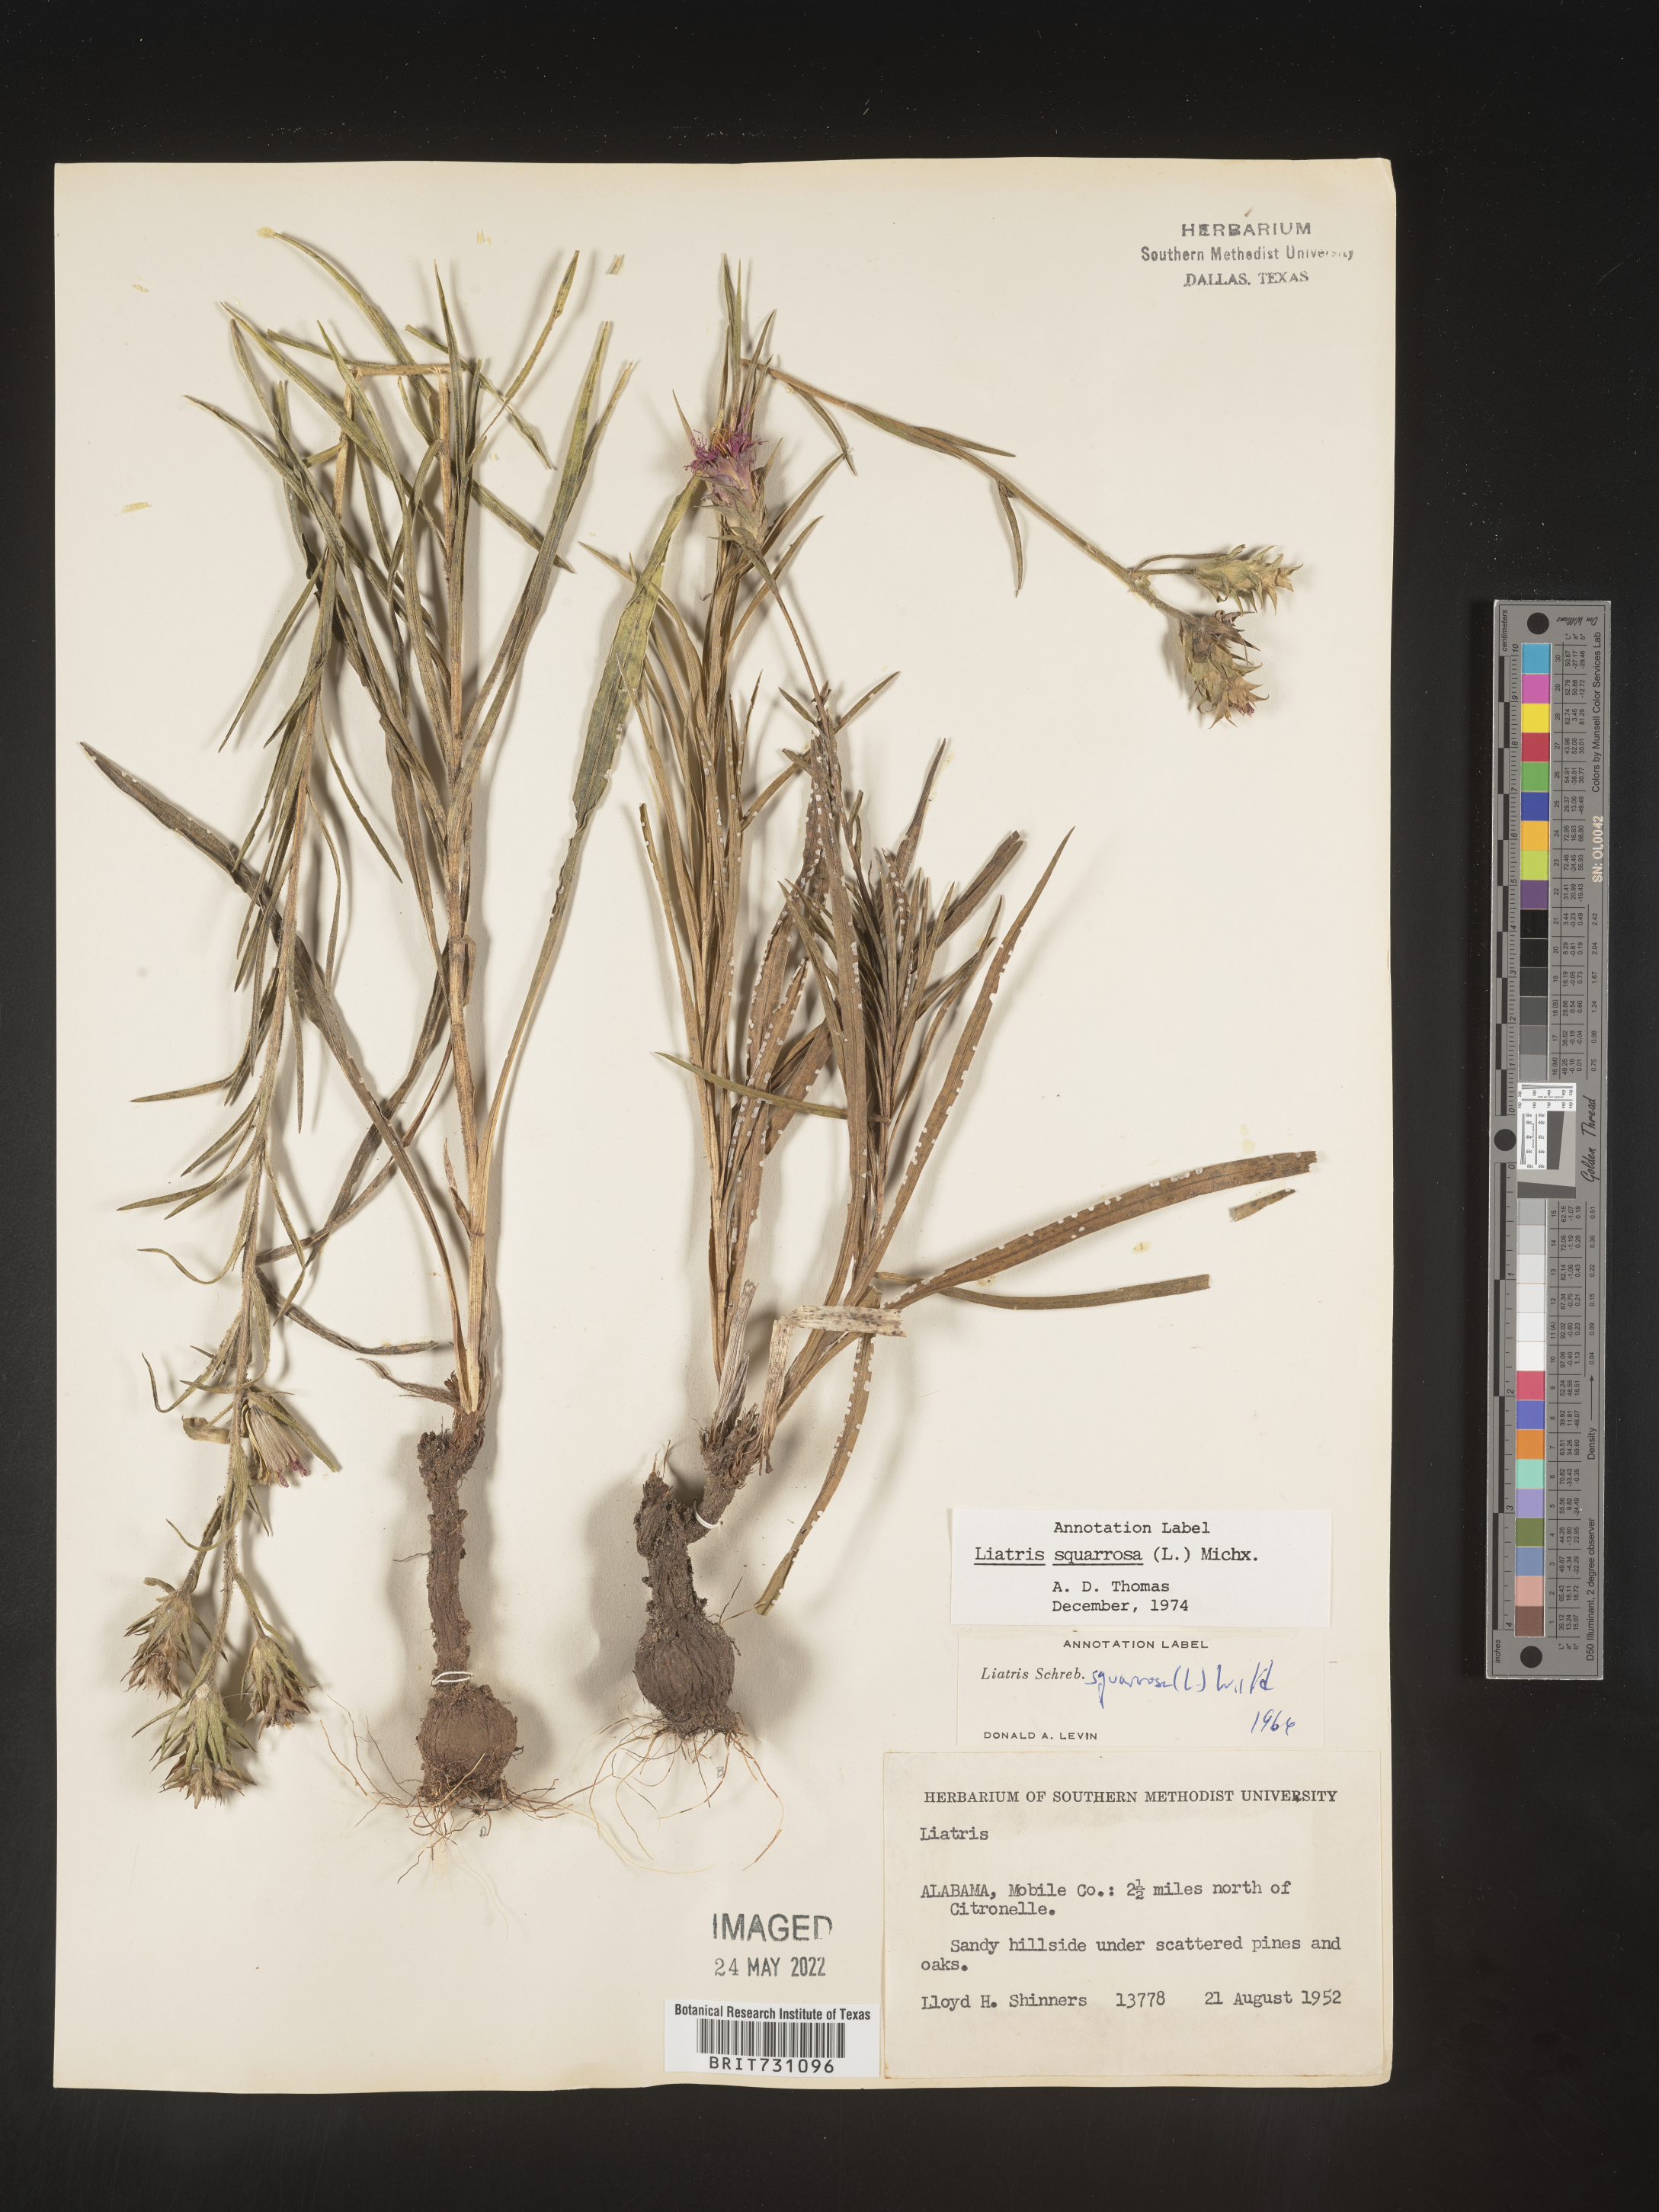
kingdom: Plantae
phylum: Tracheophyta
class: Magnoliopsida
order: Asterales
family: Asteraceae
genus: Liatris
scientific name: Liatris squarrosa
